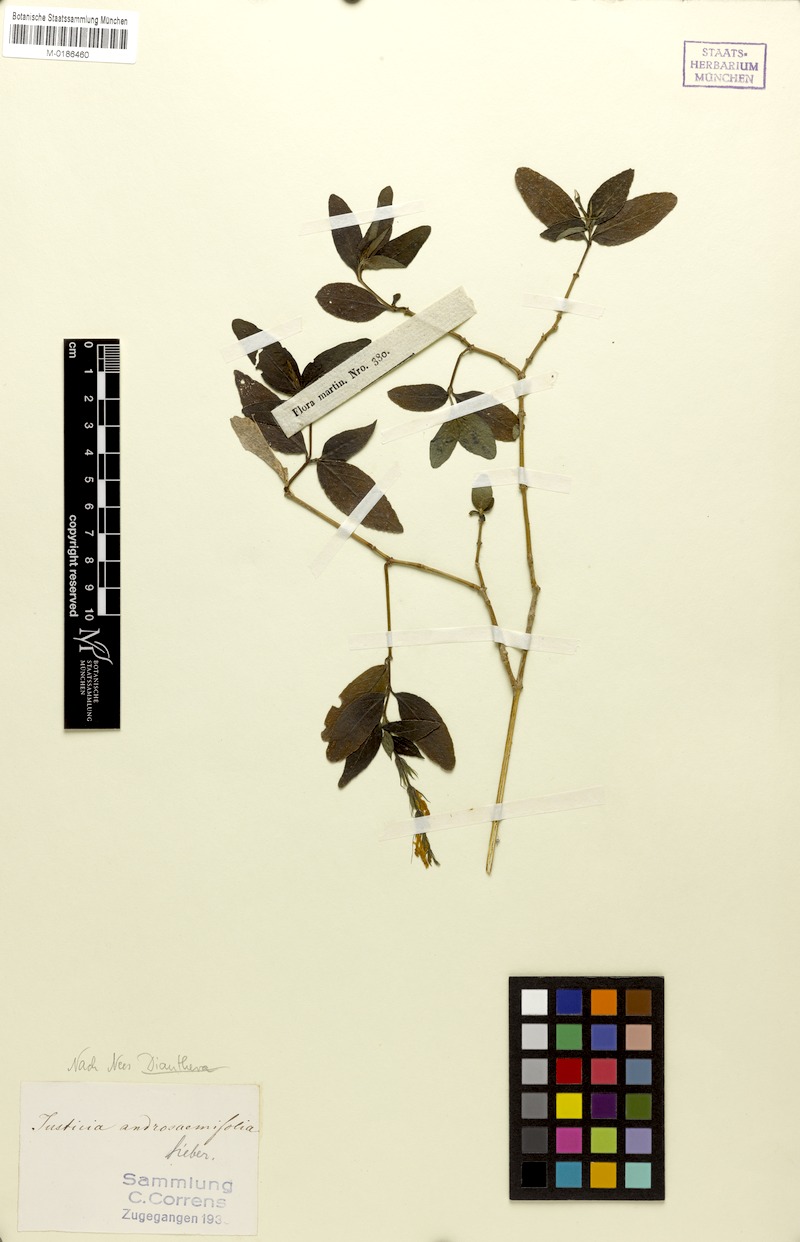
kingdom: Plantae
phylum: Tracheophyta
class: Magnoliopsida
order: Lamiales
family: Acanthaceae
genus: Dianthera
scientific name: Dianthera androsaemifolia
